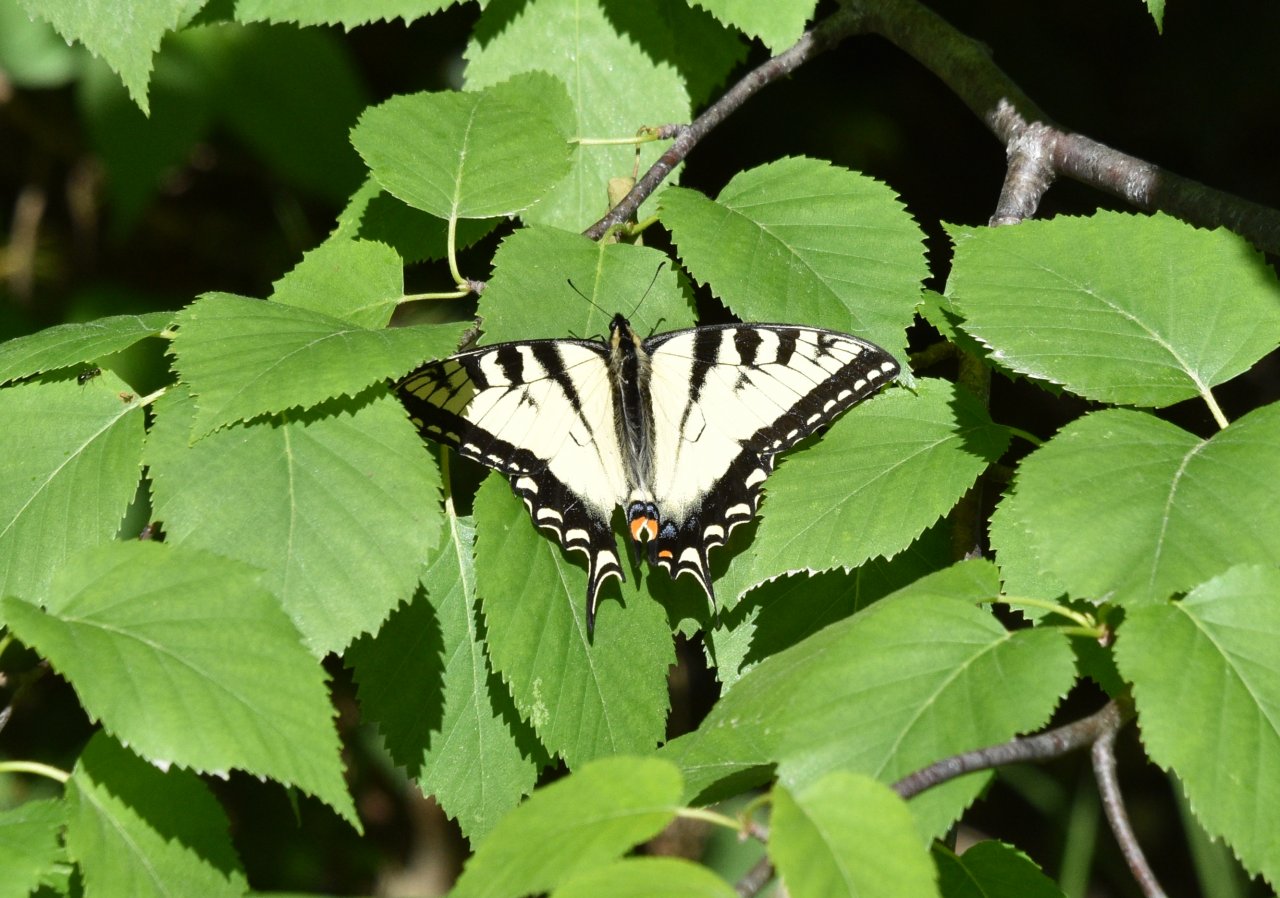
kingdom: Animalia
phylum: Arthropoda
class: Insecta
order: Lepidoptera
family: Papilionidae
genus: Pterourus
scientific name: Pterourus canadensis
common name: Canadian Tiger Swallowtail
